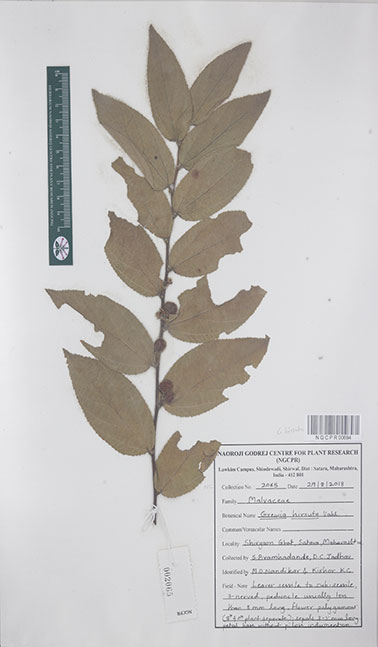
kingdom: Plantae
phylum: Tracheophyta
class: Magnoliopsida
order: Malvales
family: Malvaceae
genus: Grewia
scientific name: Grewia hirsuta
